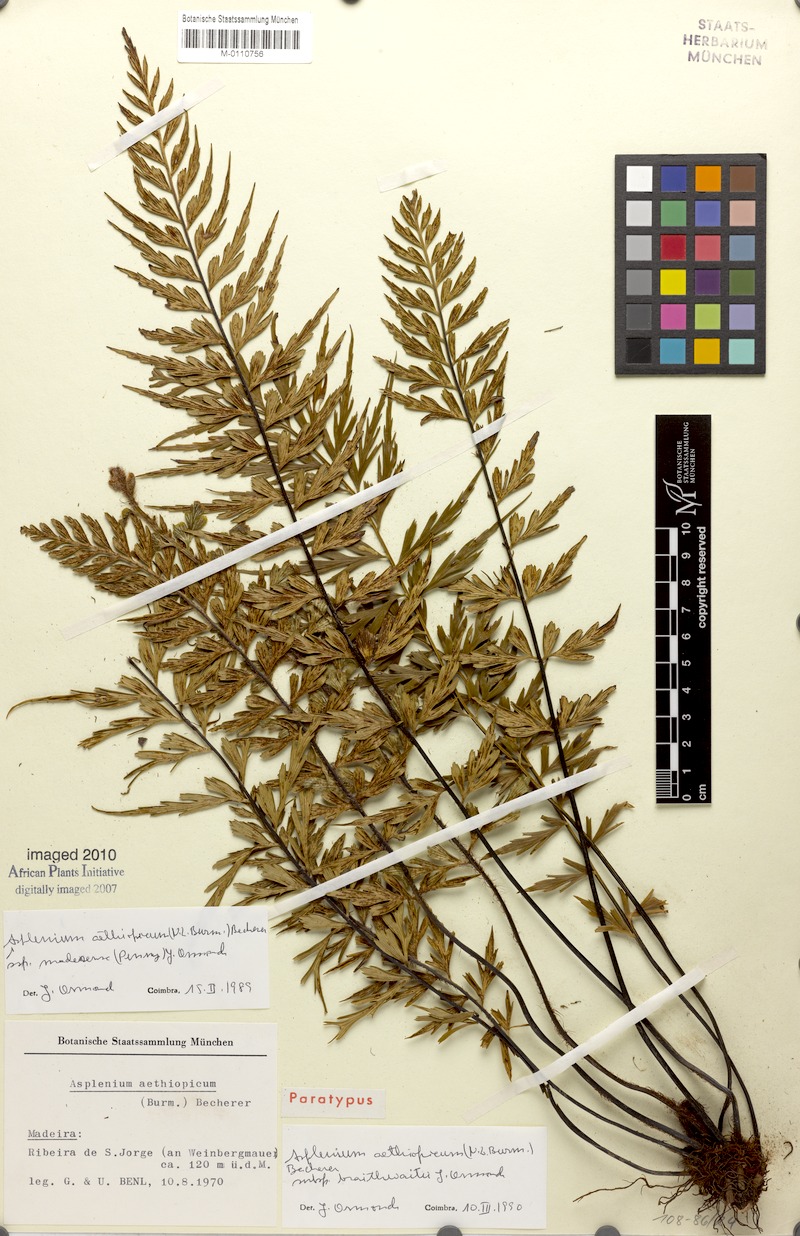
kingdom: Plantae
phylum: Tracheophyta
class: Polypodiopsida
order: Polypodiales
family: Aspleniaceae
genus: Asplenium
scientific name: Asplenium aethiopicum
